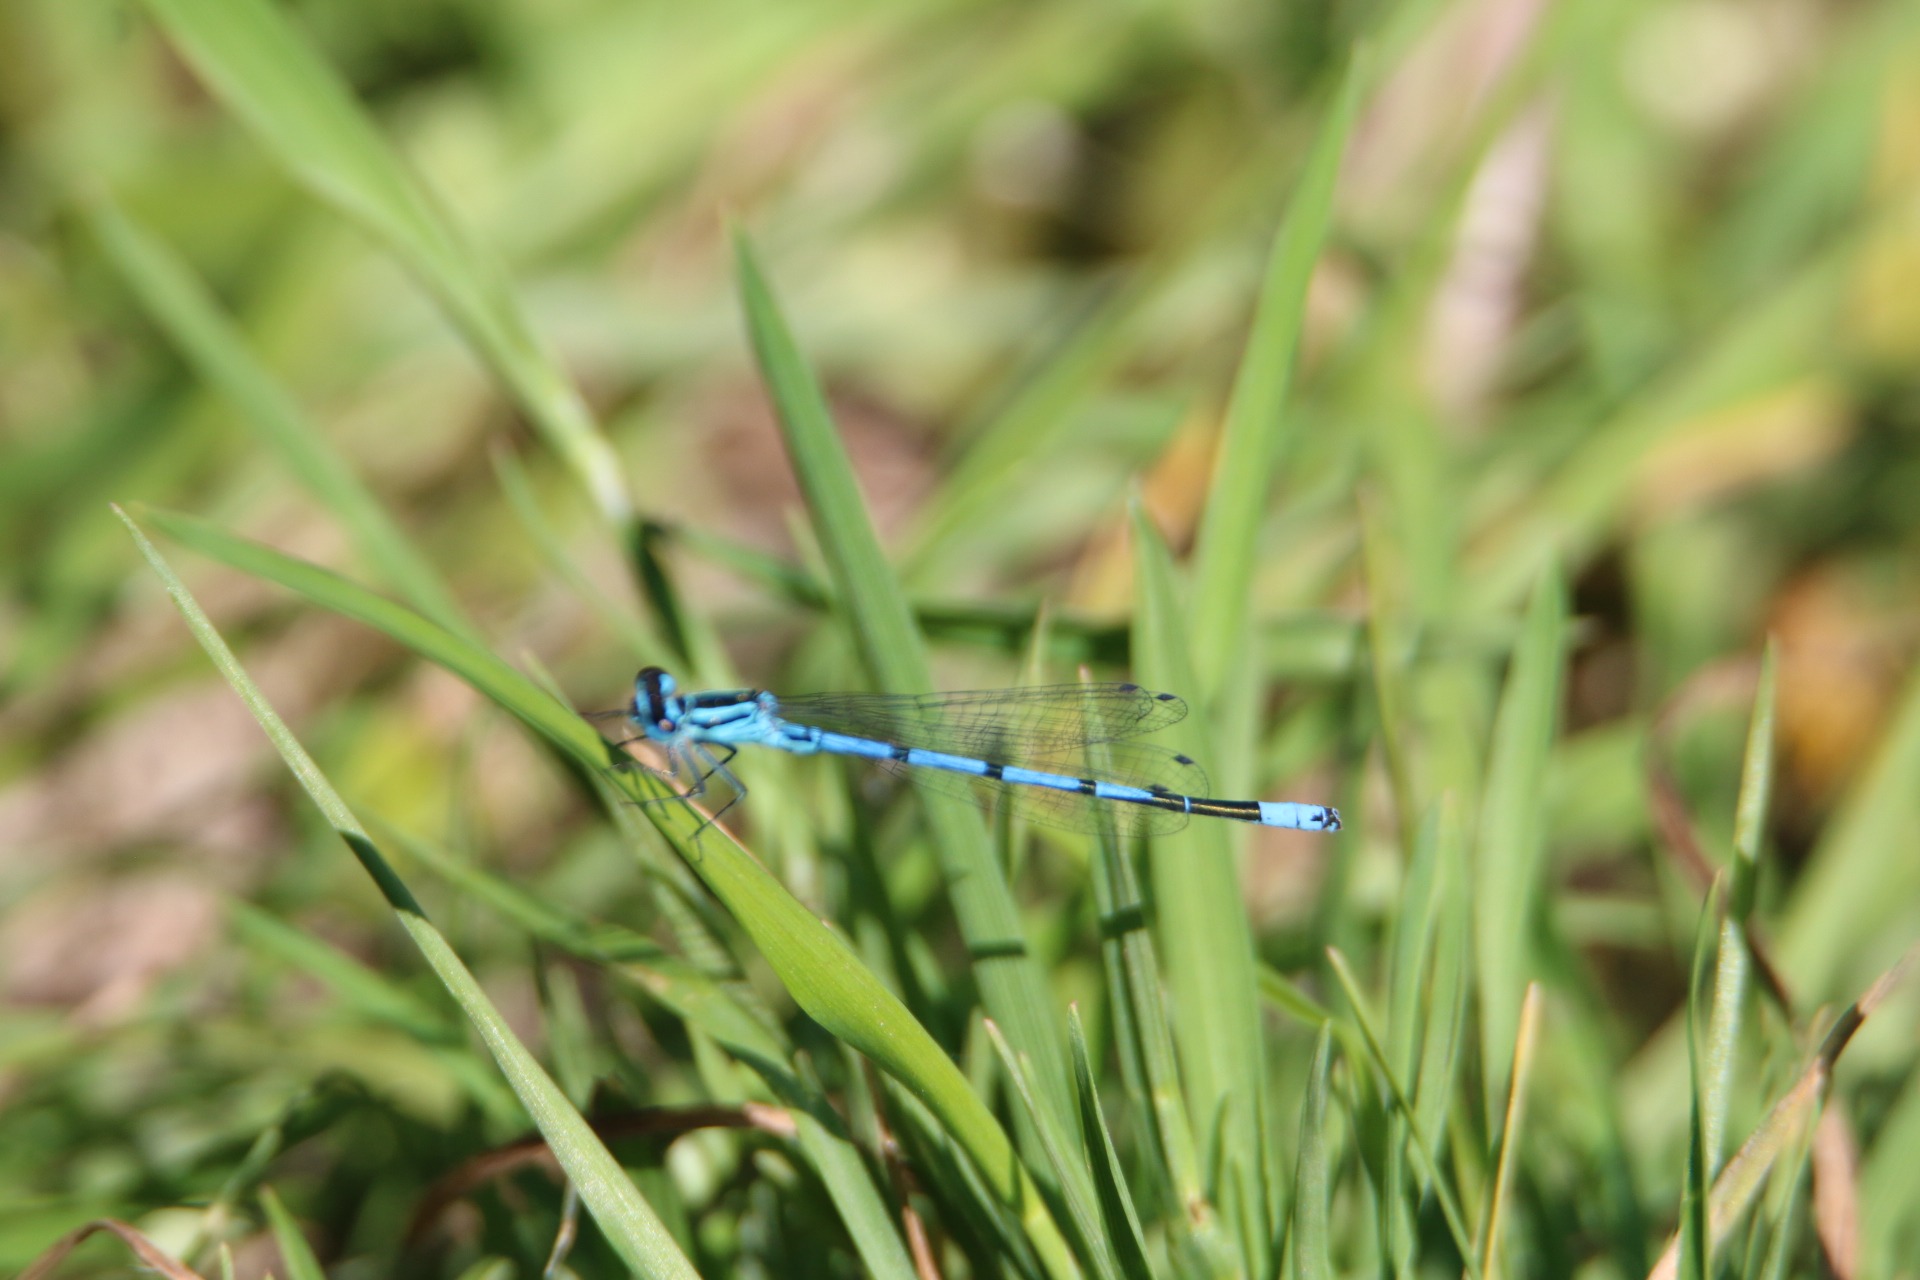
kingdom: Animalia
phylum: Arthropoda
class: Insecta
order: Odonata
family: Coenagrionidae
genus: Coenagrion
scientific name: Coenagrion puella
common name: Hestesko-vandnymfe
